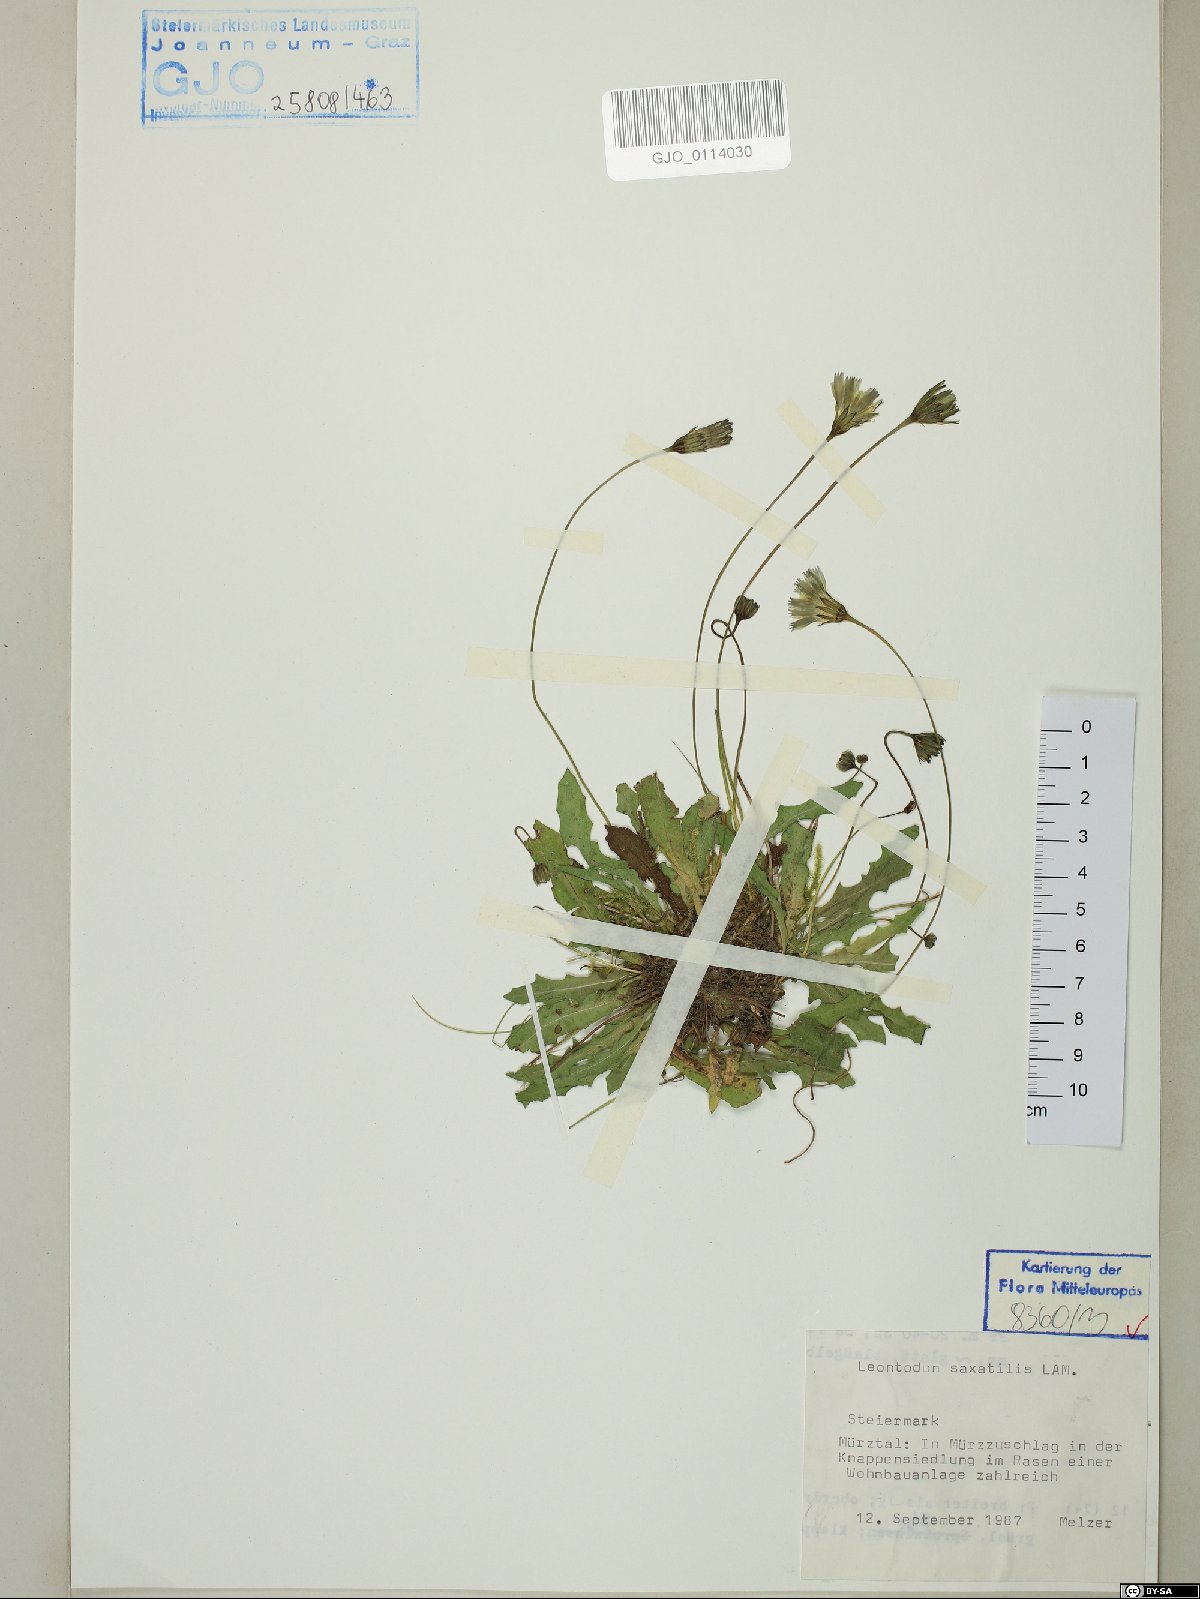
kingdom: Plantae
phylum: Tracheophyta
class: Magnoliopsida
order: Asterales
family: Asteraceae
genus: Thrincia
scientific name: Thrincia saxatilis
